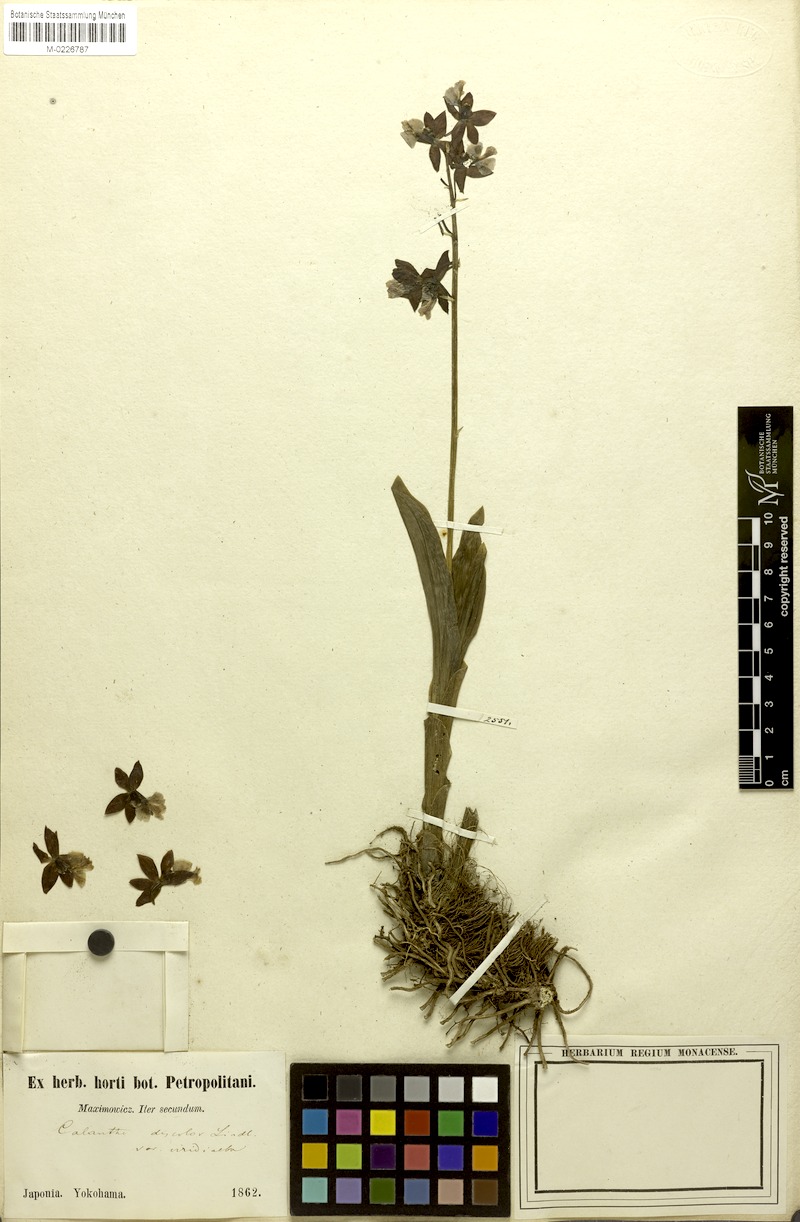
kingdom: Plantae
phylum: Tracheophyta
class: Liliopsida
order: Asparagales
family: Orchidaceae
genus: Calanthe
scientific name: Calanthe discolor
